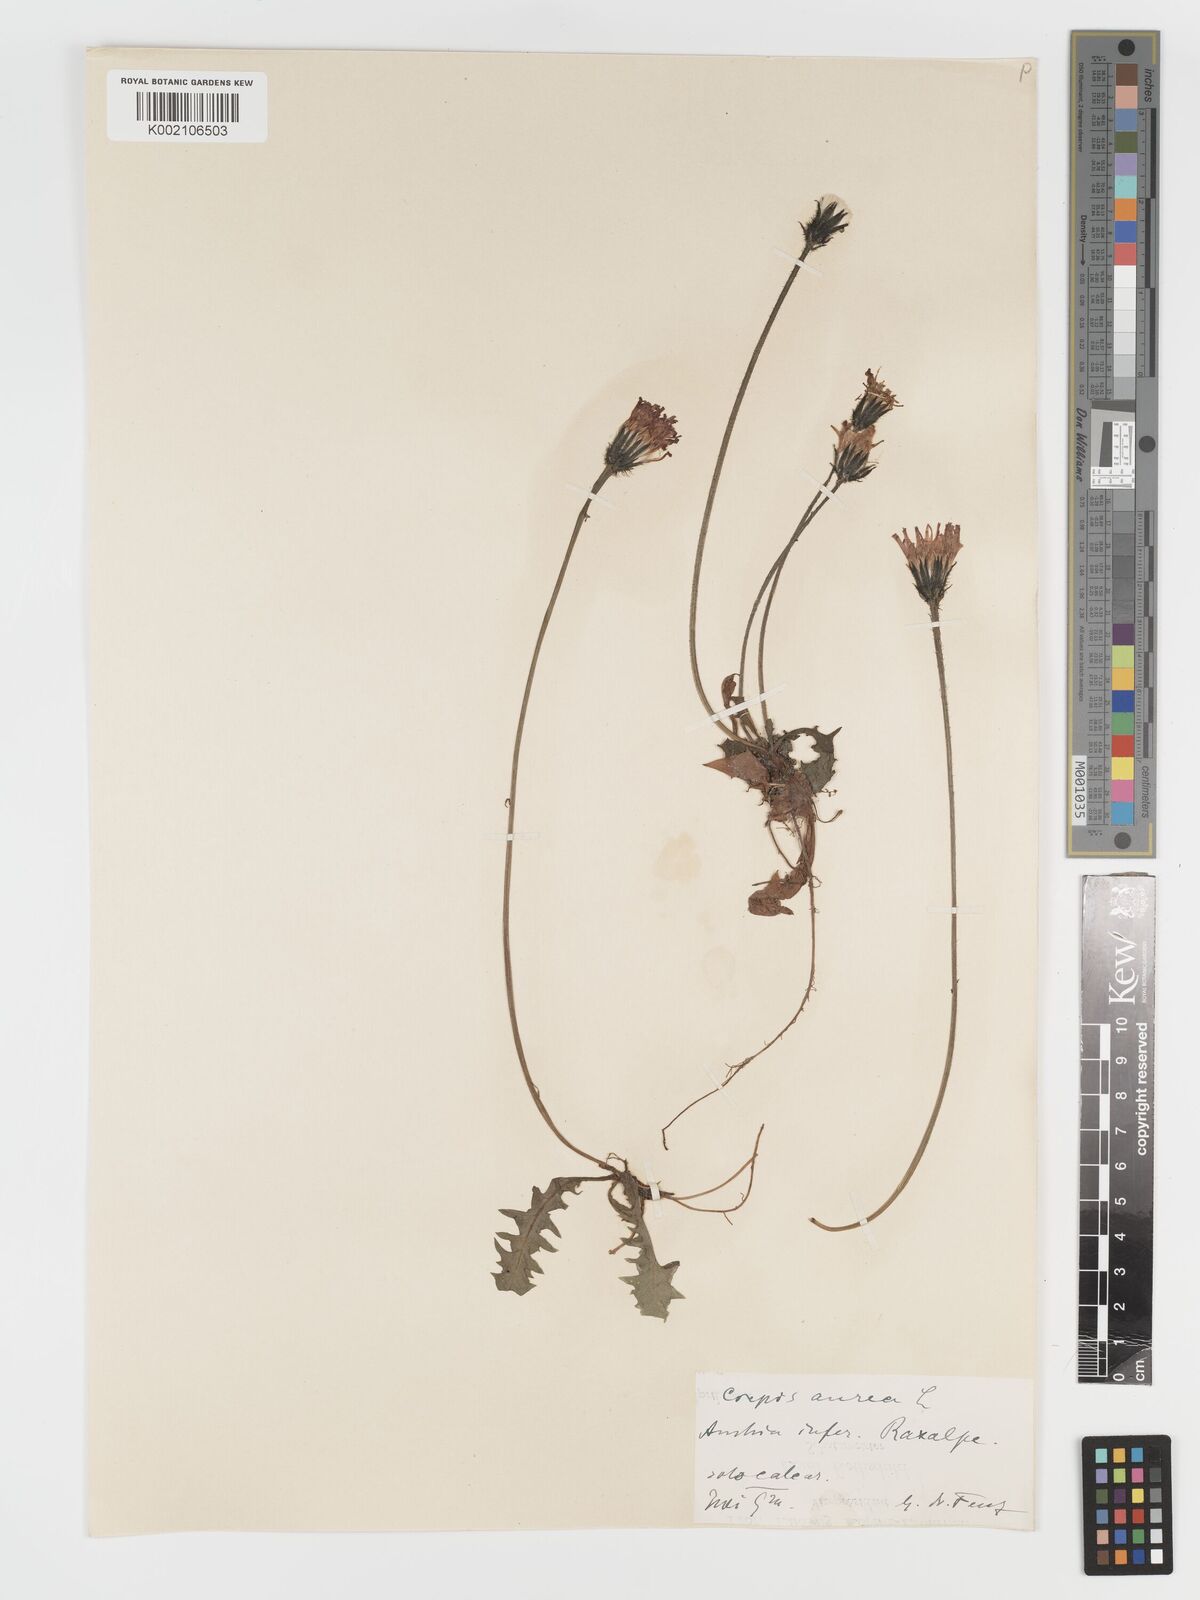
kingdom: Plantae
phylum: Tracheophyta
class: Magnoliopsida
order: Asterales
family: Asteraceae
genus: Crepis
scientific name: Crepis aurea
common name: Golden hawk's-beard
